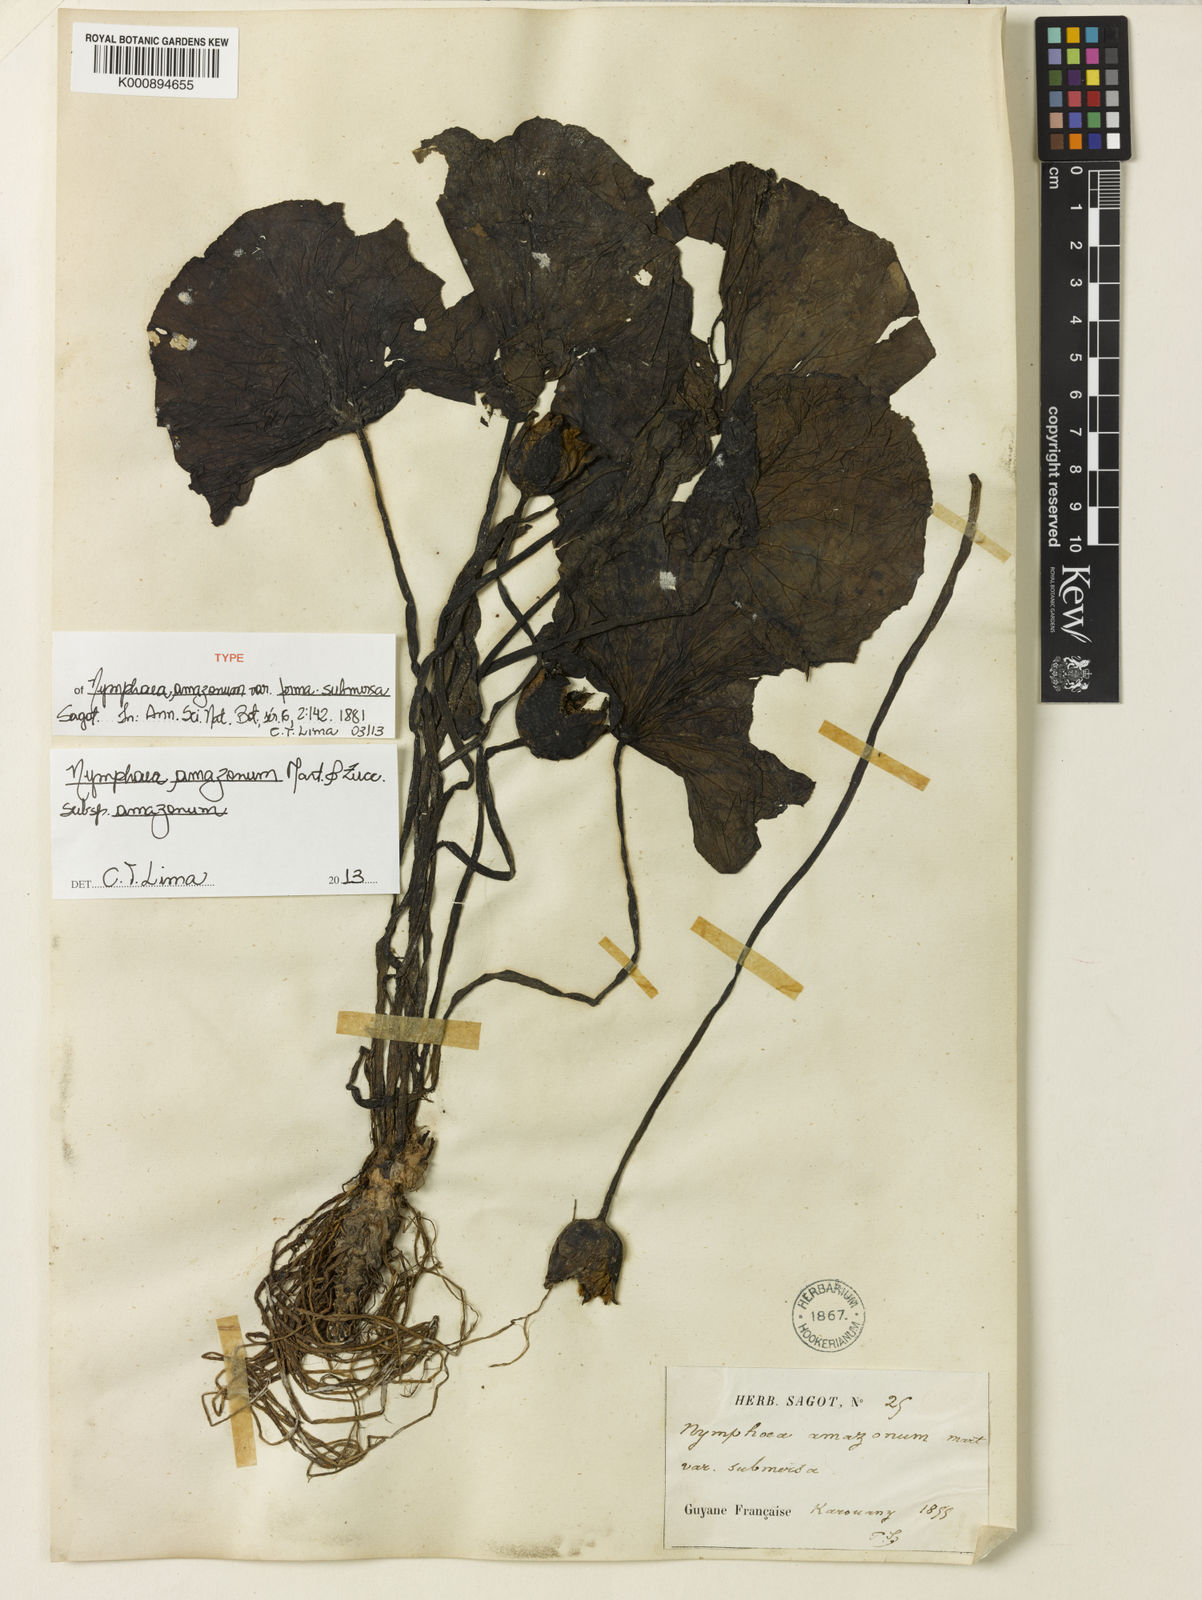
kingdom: Plantae
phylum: Tracheophyta
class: Magnoliopsida
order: Nymphaeales
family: Nymphaeaceae
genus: Nymphaea
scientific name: Nymphaea amazonum
